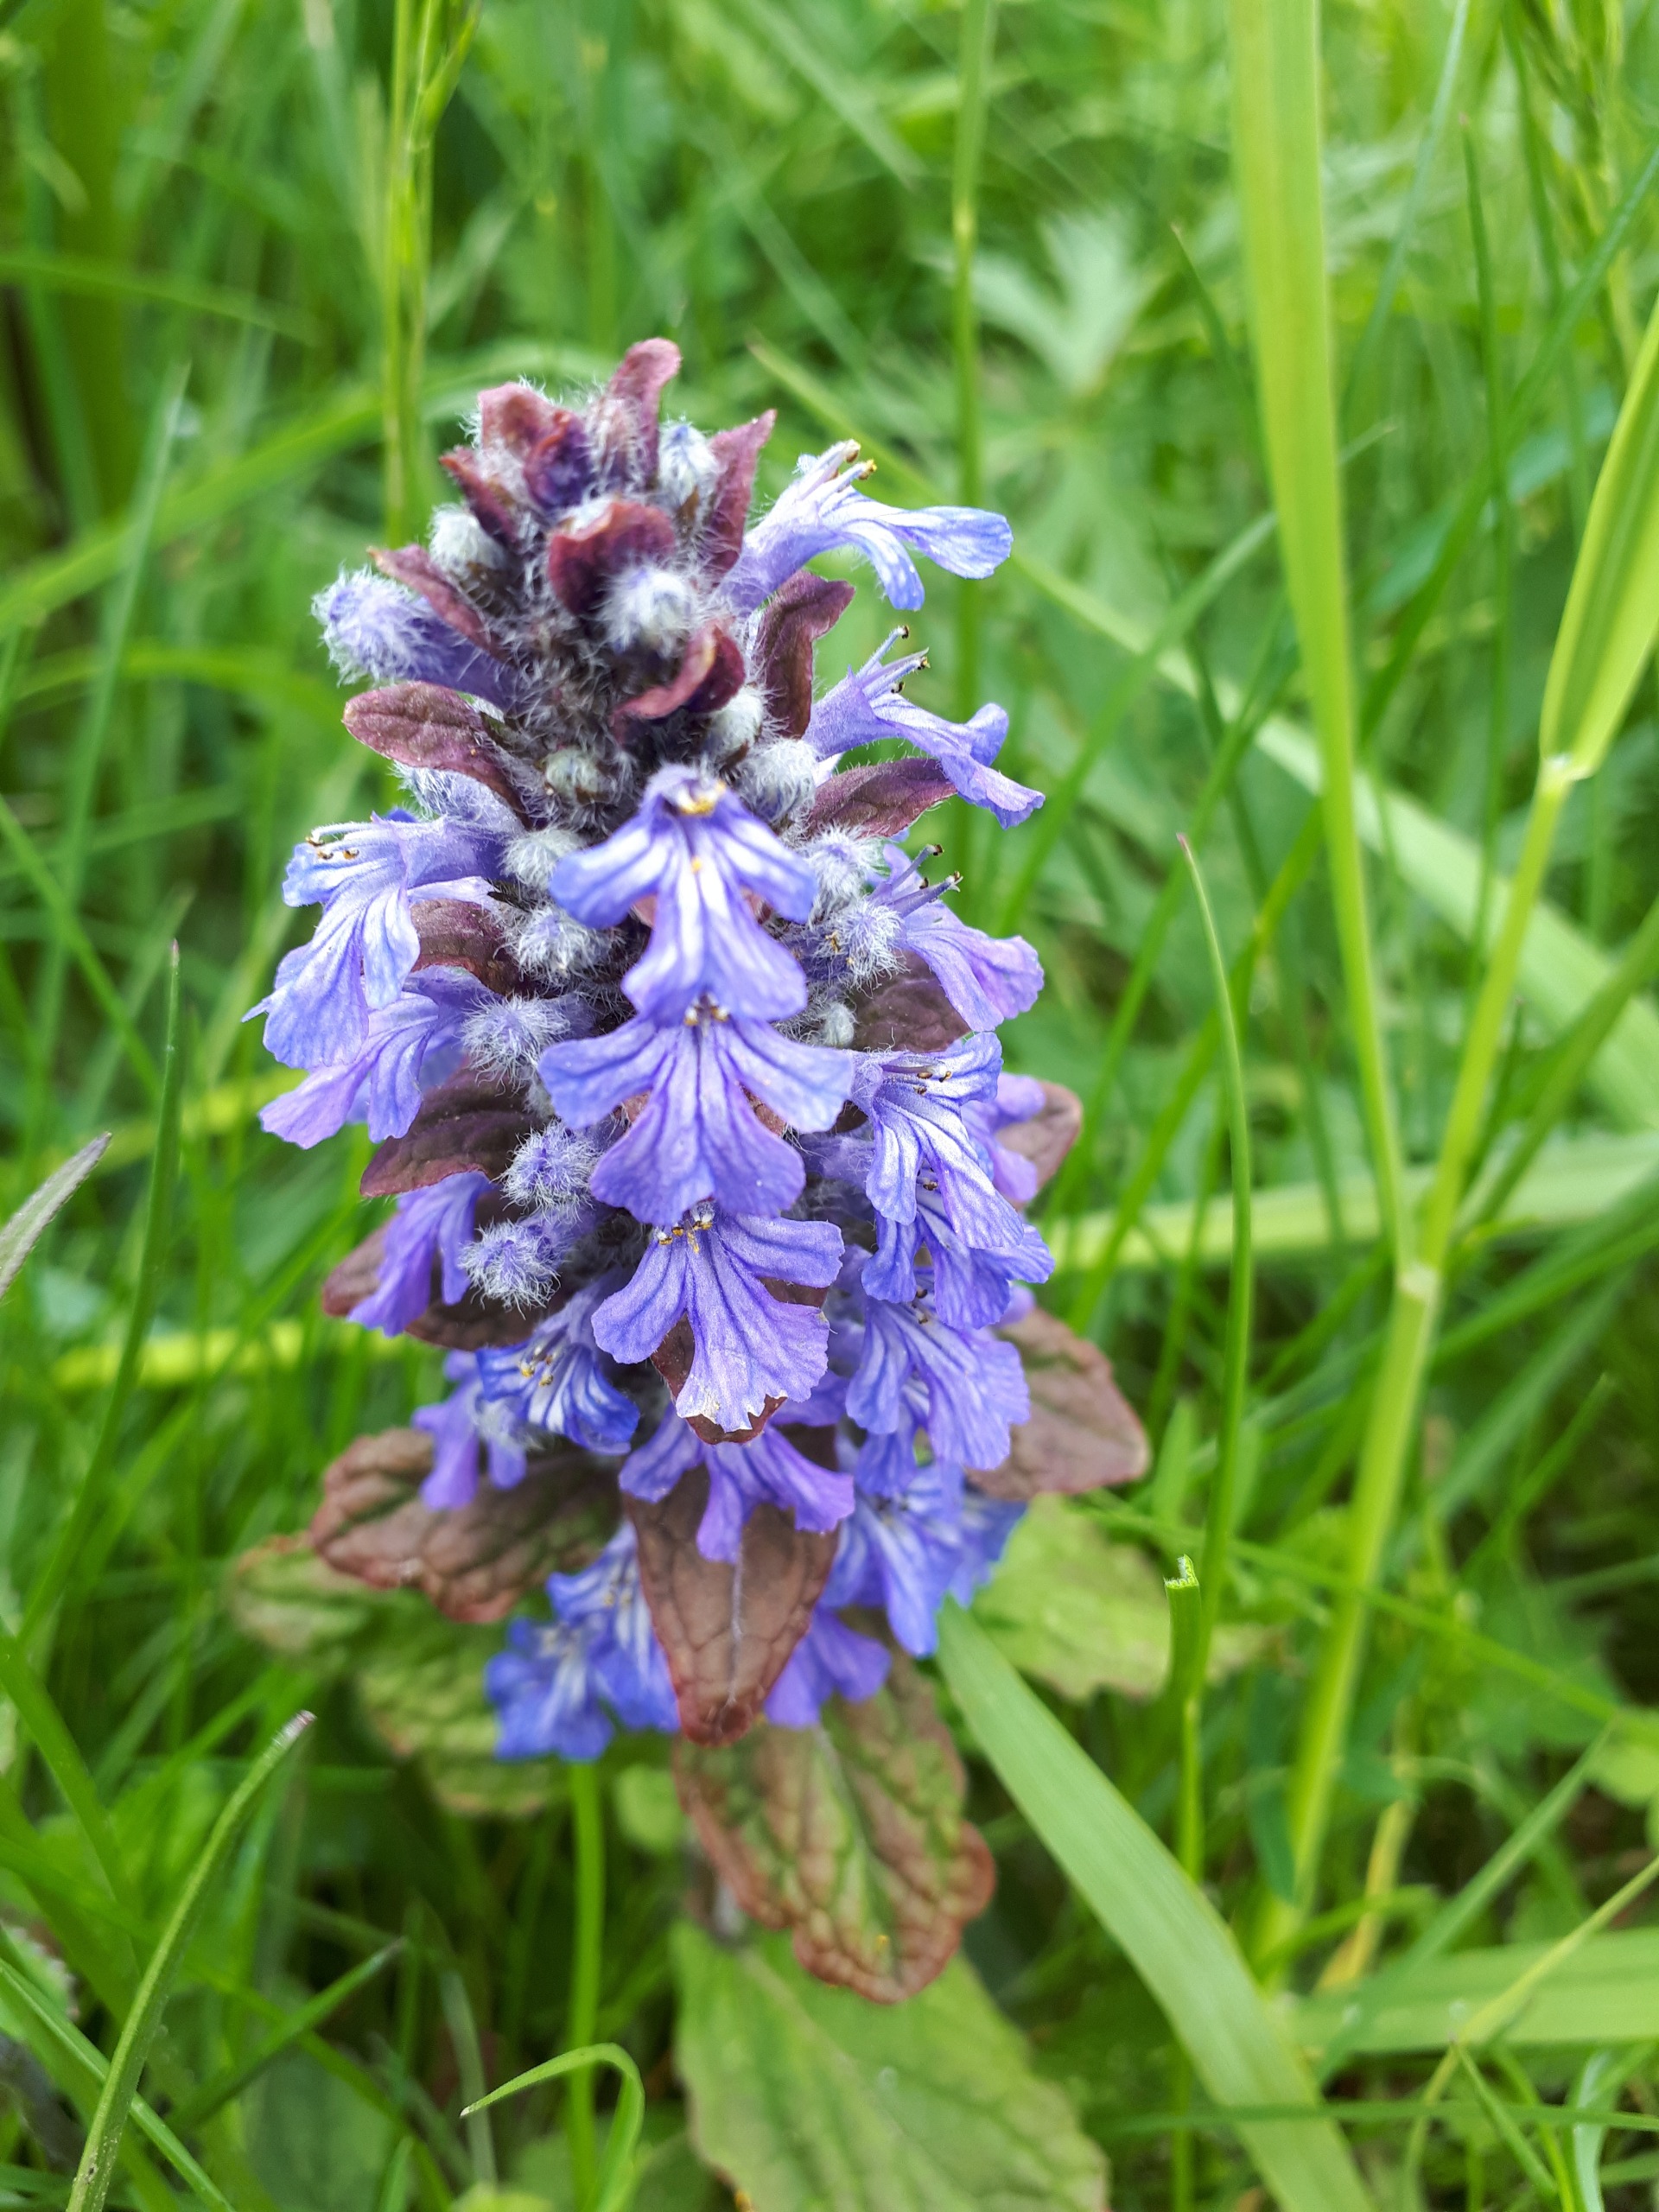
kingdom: Plantae
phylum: Tracheophyta
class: Magnoliopsida
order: Lamiales
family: Lamiaceae
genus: Ajuga
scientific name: Ajuga reptans
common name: Krybende læbeløs
